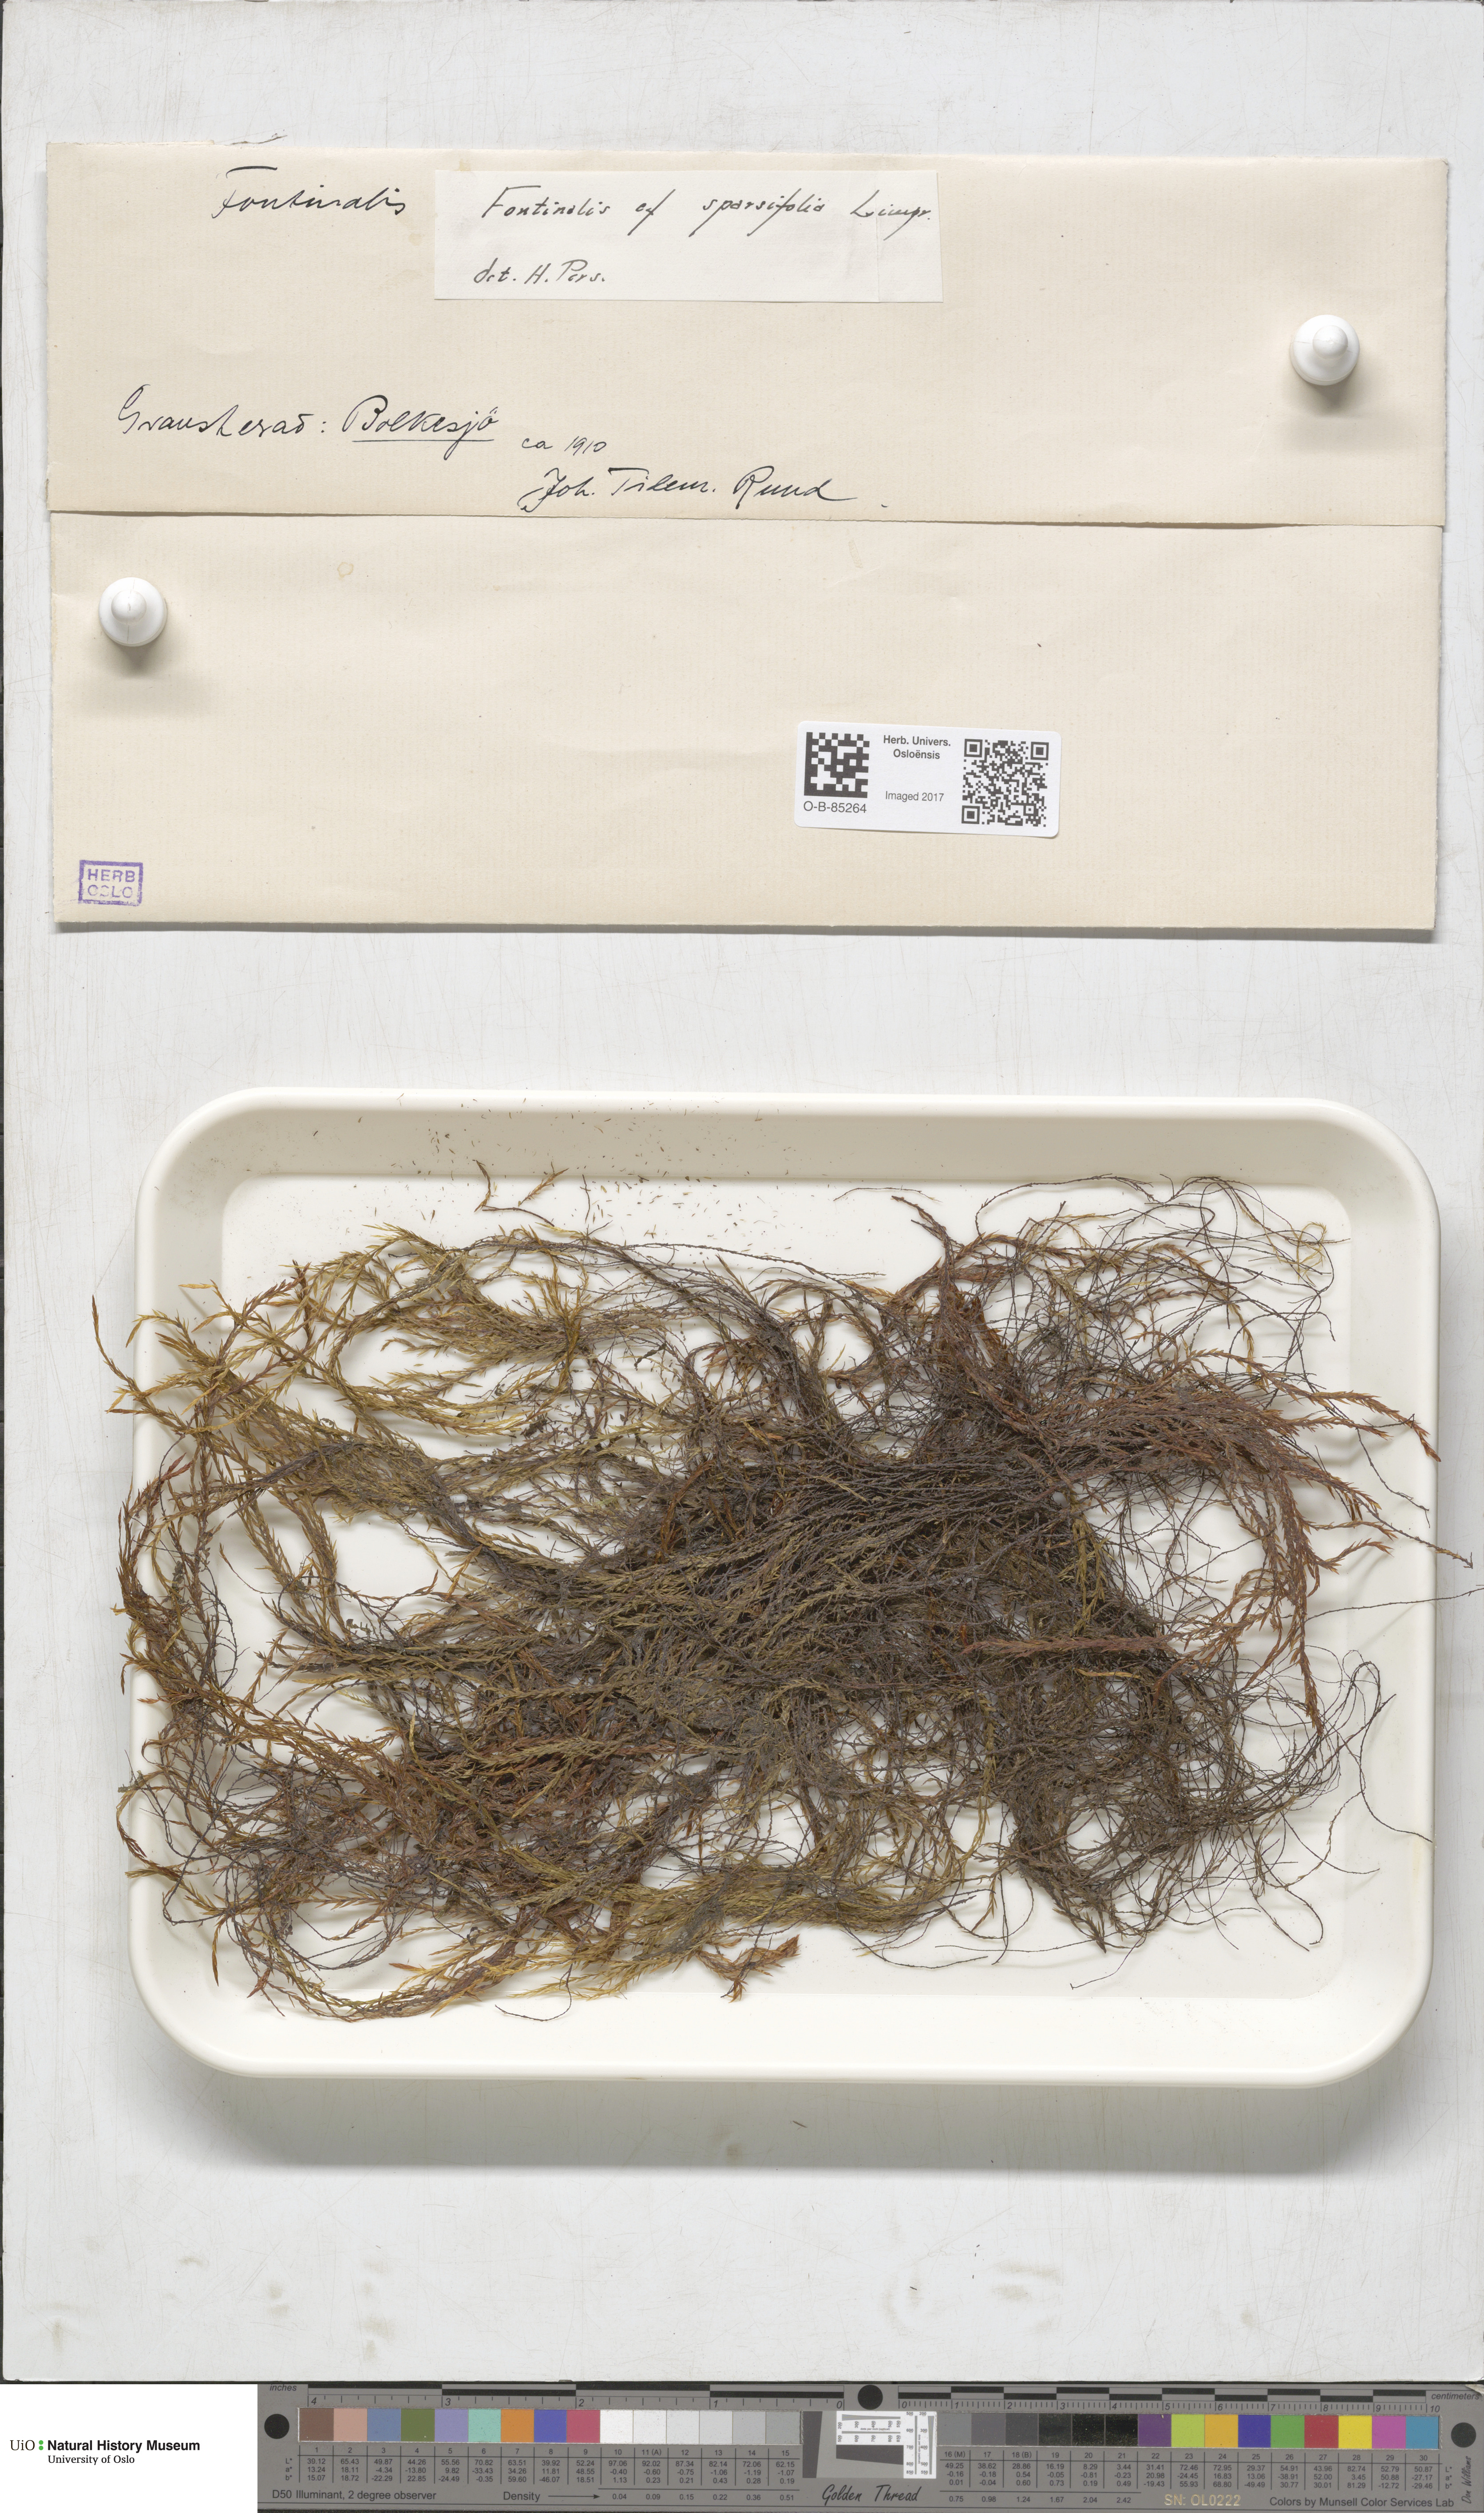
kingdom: Plantae
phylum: Bryophyta
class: Bryopsida
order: Hypnales
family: Fontinalaceae
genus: Fontinalis
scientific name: Fontinalis antipyretica
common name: Greater water-moss
